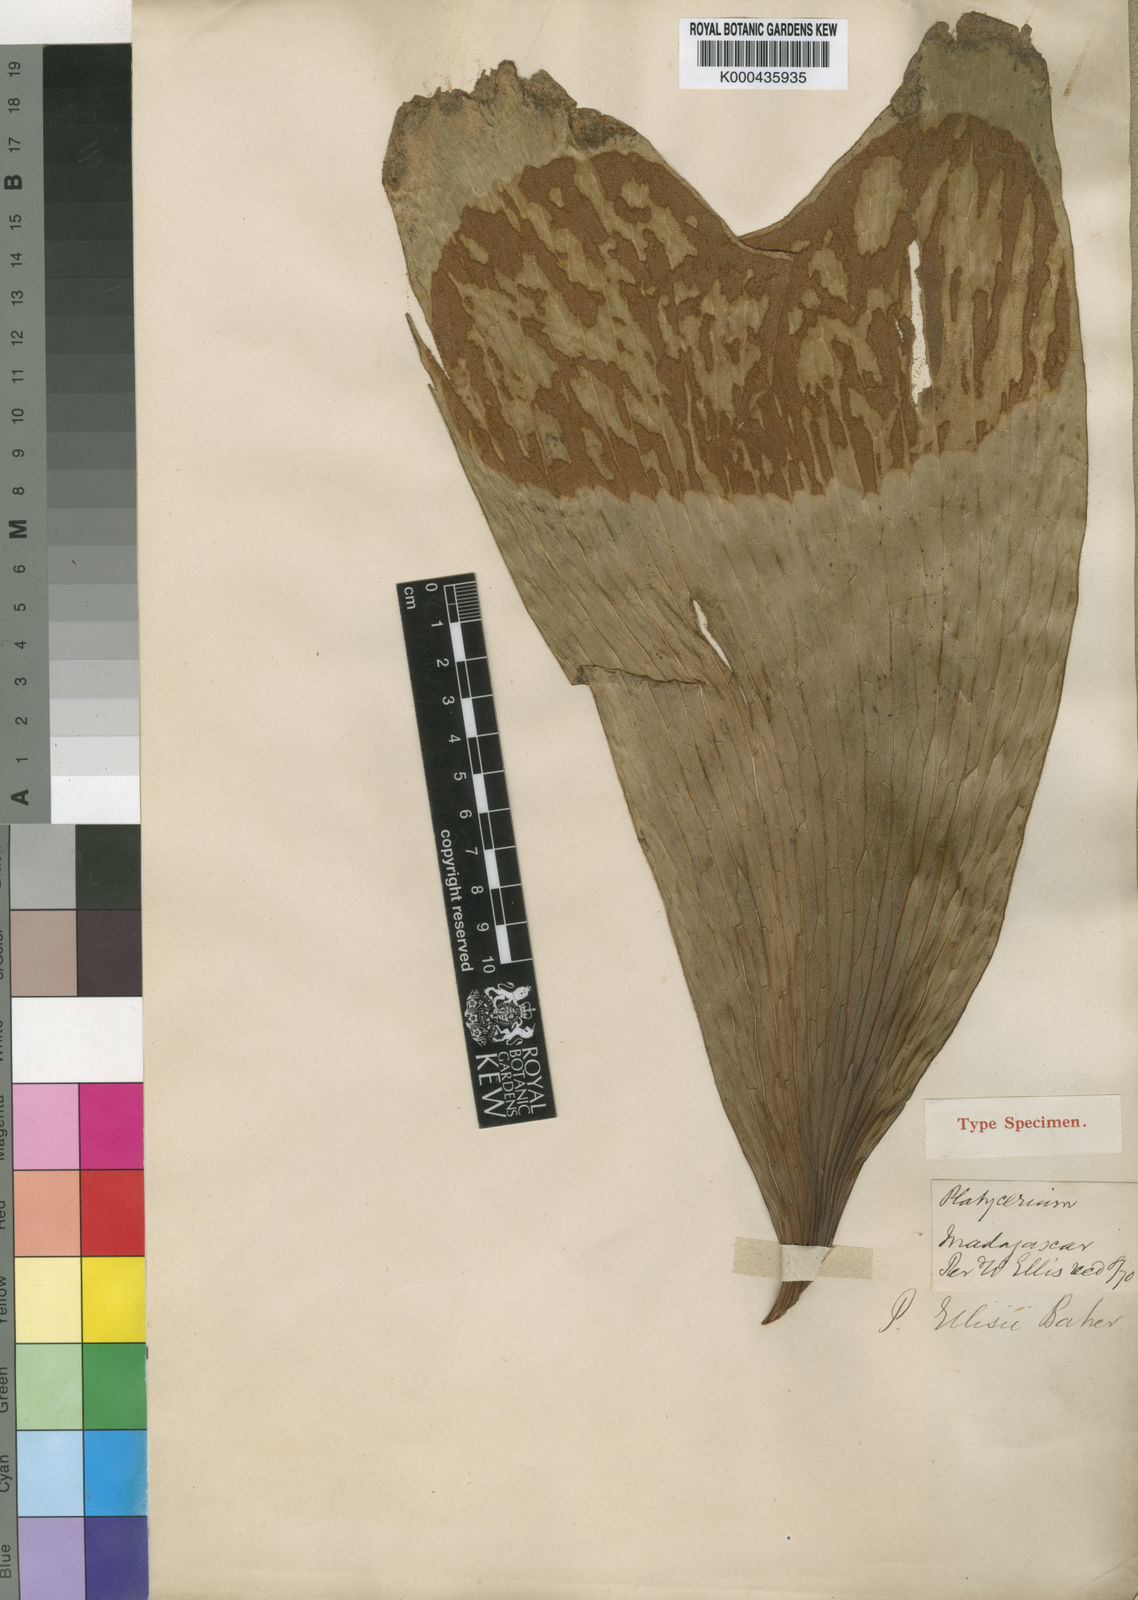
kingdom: Plantae
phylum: Tracheophyta
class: Polypodiopsida
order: Polypodiales
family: Polypodiaceae
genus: Platycerium
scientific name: Platycerium ellisii
